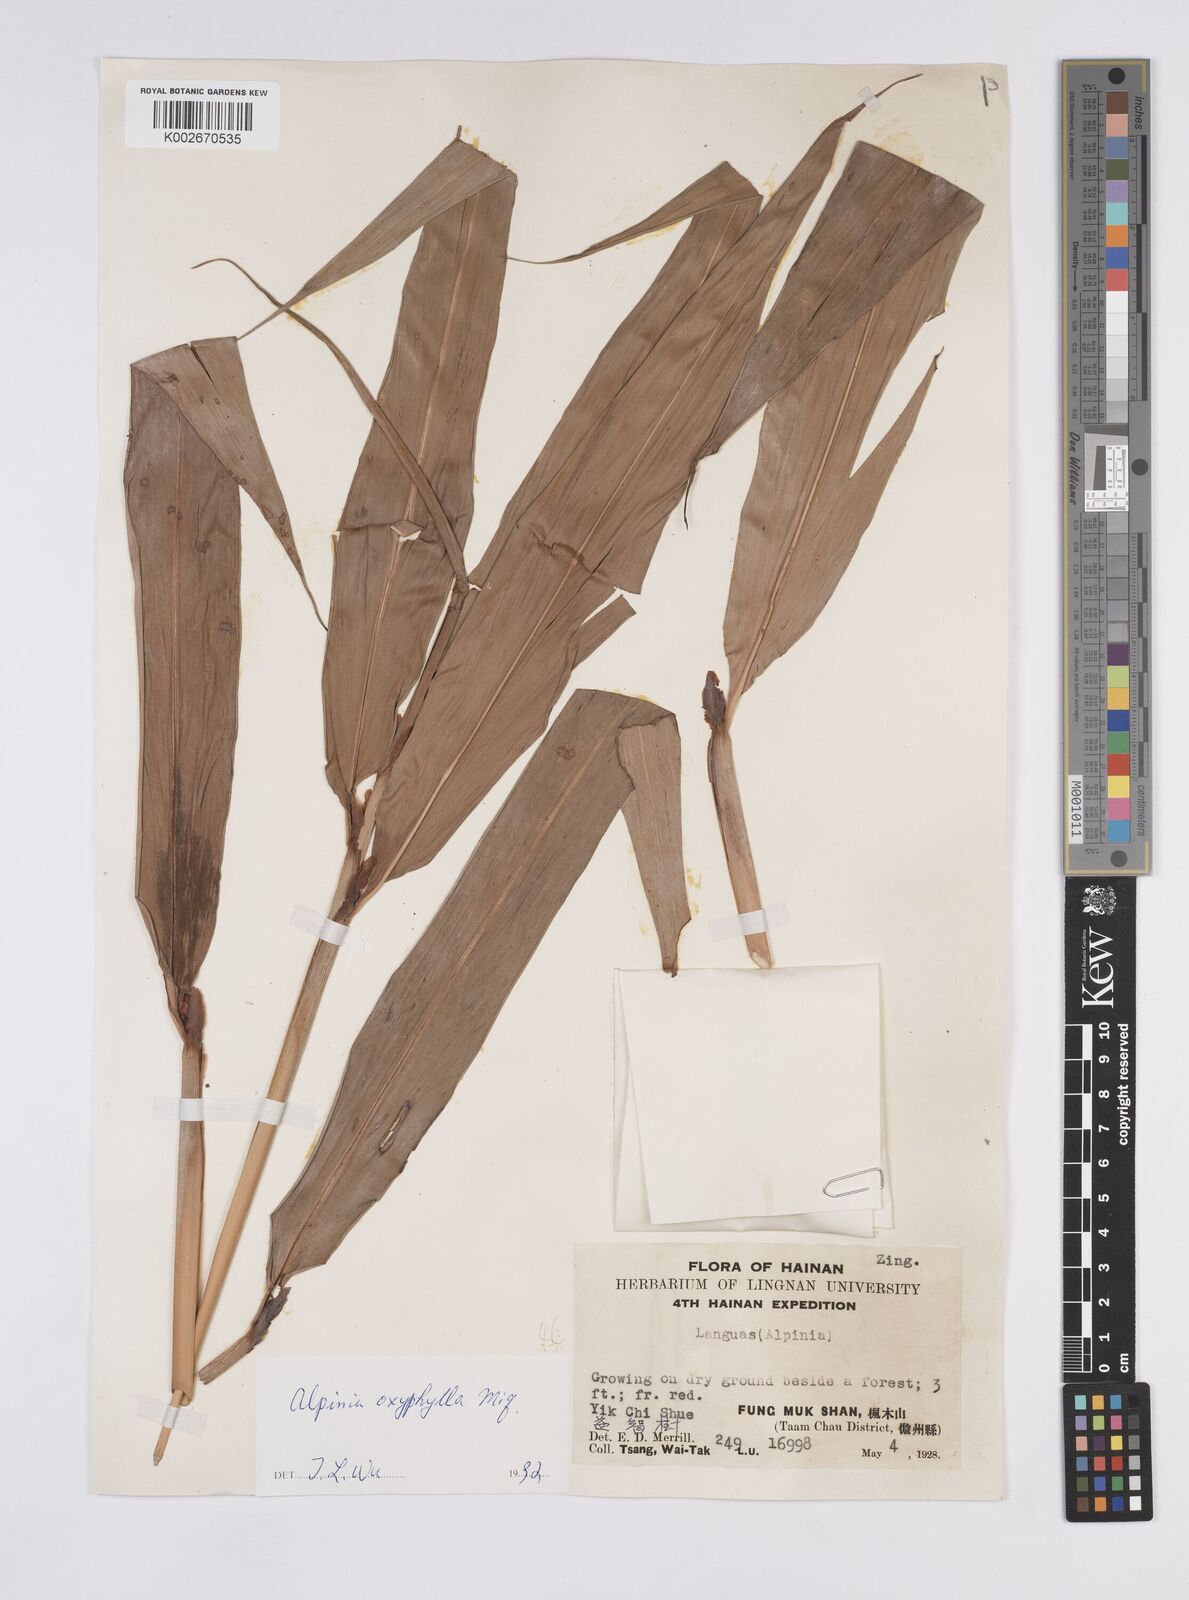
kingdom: Plantae
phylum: Tracheophyta
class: Liliopsida
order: Zingiberales
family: Zingiberaceae
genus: Alpinia
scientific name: Alpinia oxyphylla
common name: Sharp-leaf galangal
